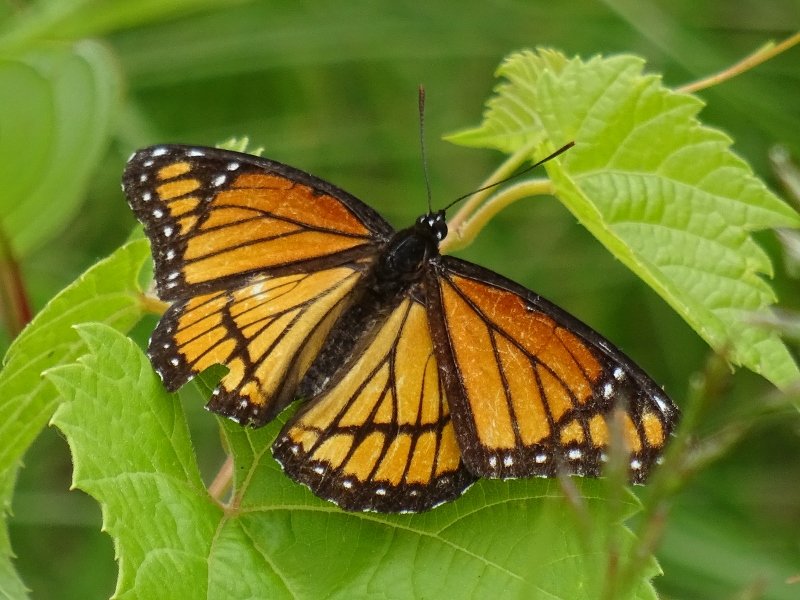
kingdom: Animalia
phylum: Arthropoda
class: Insecta
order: Lepidoptera
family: Nymphalidae
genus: Limenitis
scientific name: Limenitis archippus
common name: Viceroy
